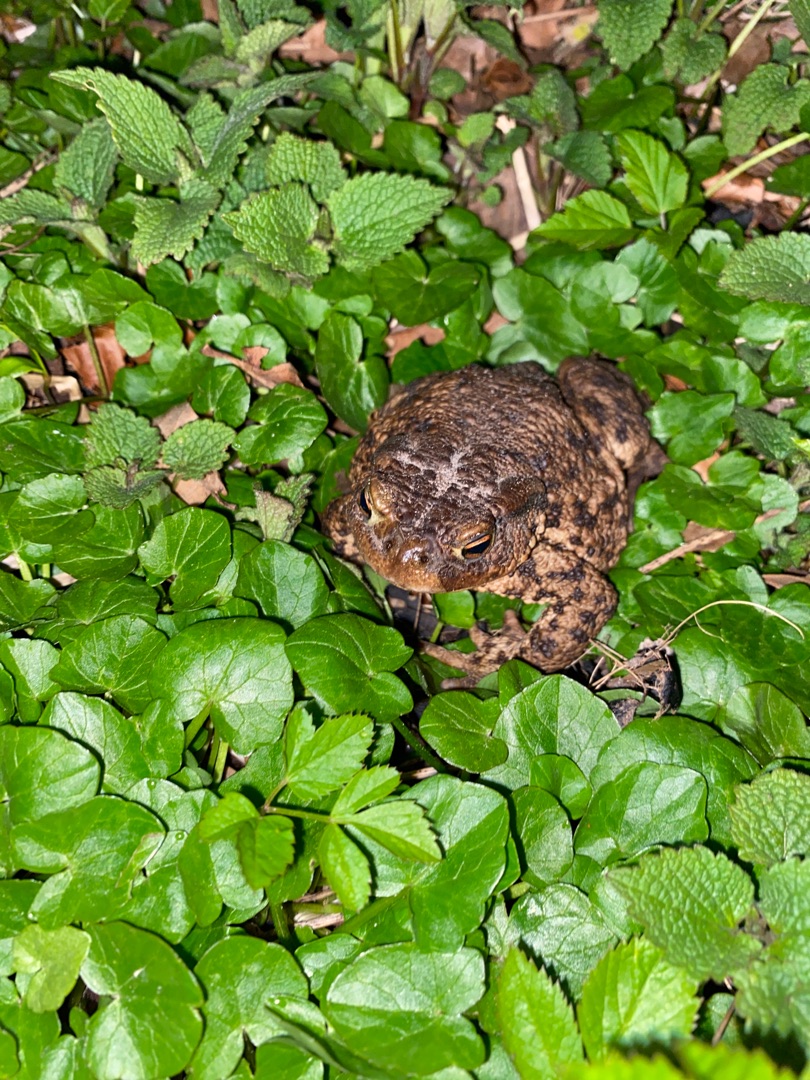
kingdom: Animalia
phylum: Chordata
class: Amphibia
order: Anura
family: Bufonidae
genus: Bufo
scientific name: Bufo bufo
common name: Skrubtudse
